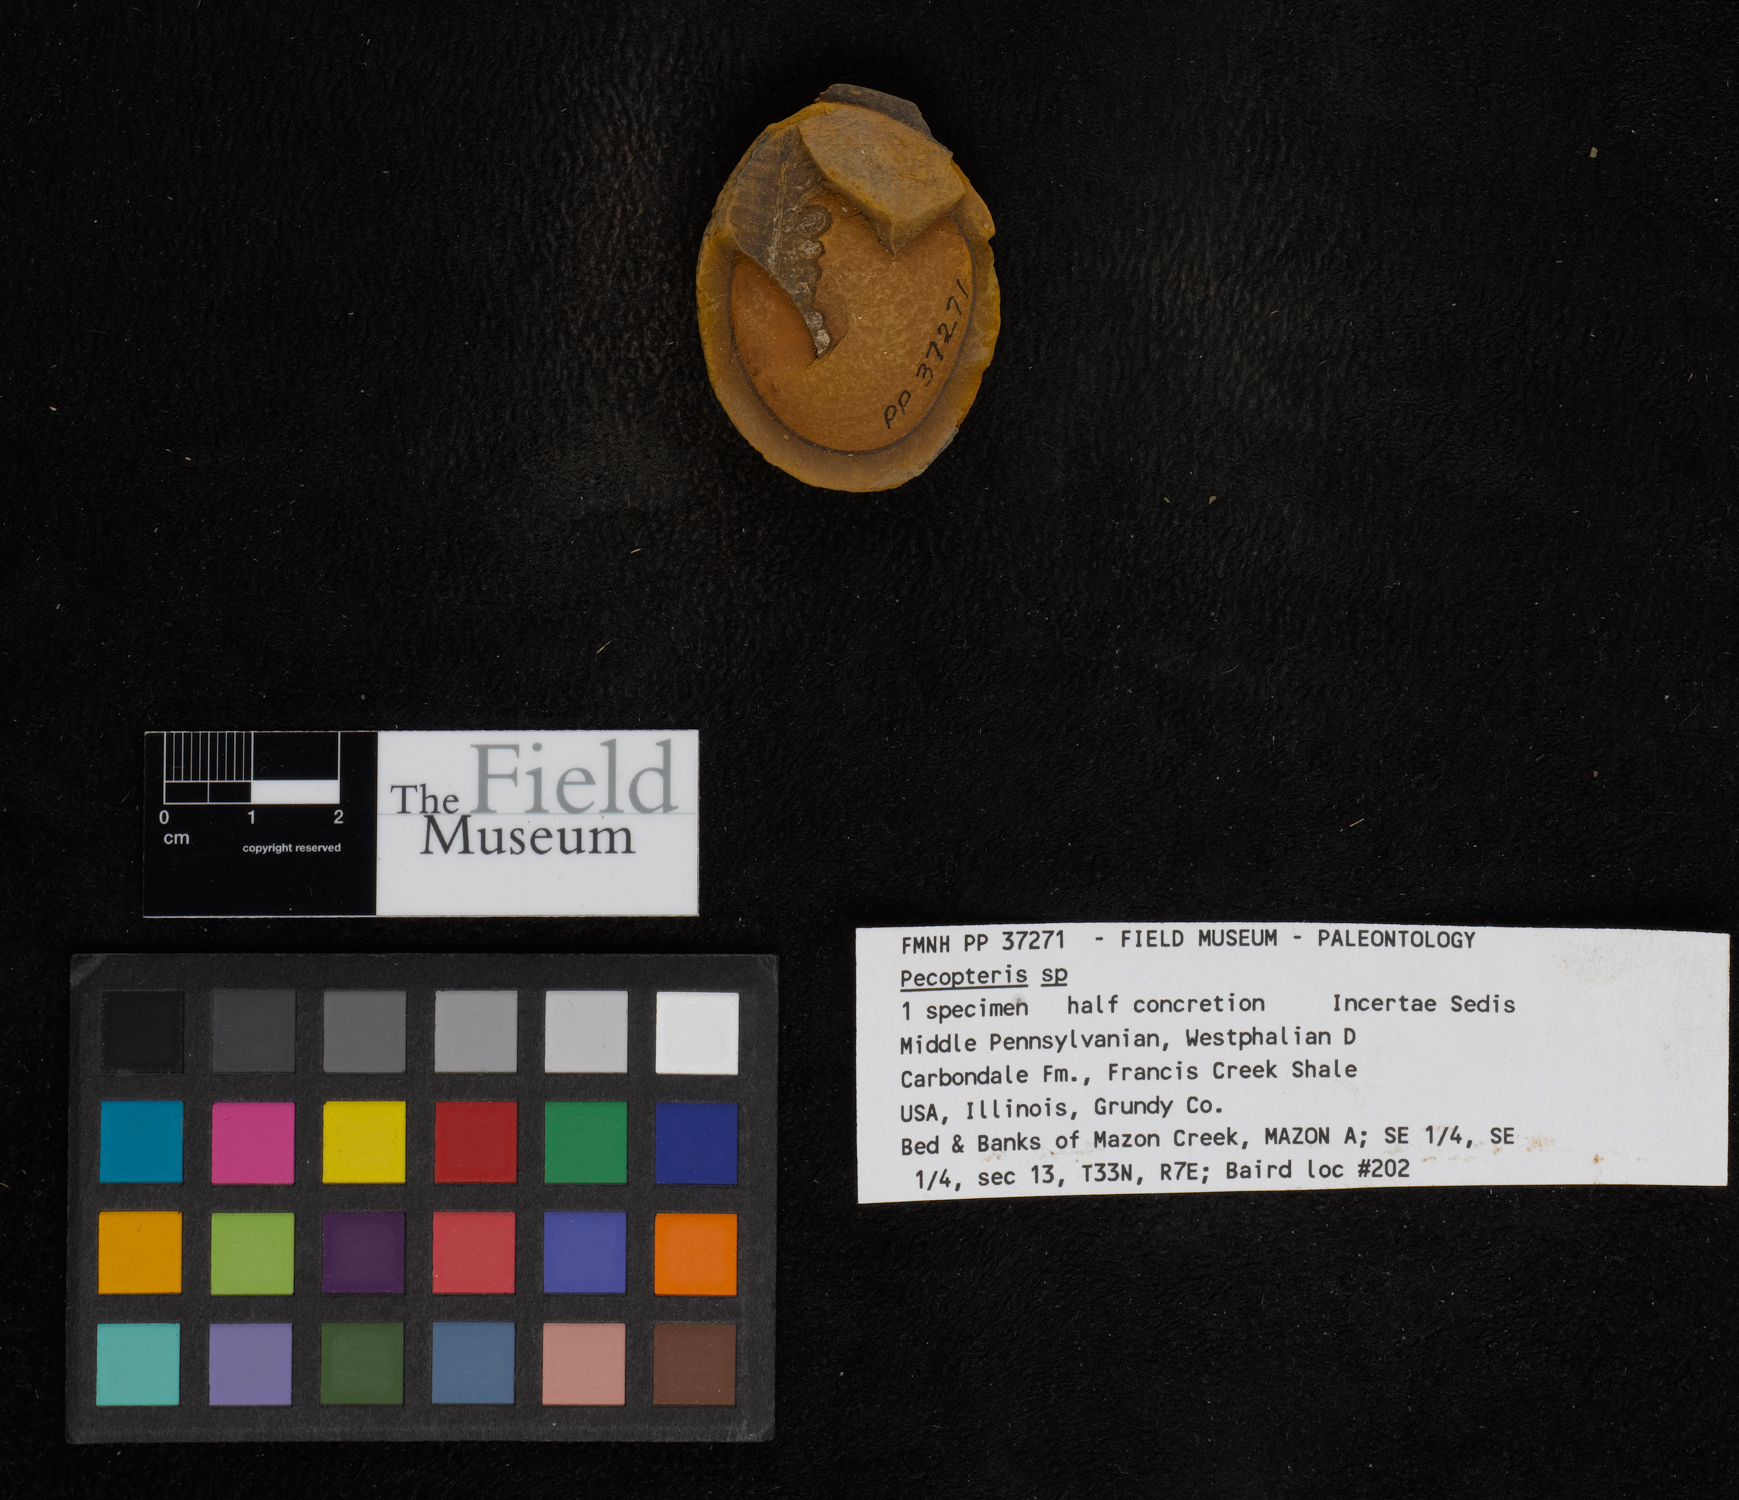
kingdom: Plantae
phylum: Tracheophyta
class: Polypodiopsida
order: Marattiales
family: Asterothecaceae
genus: Pecopteris
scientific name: Pecopteris
